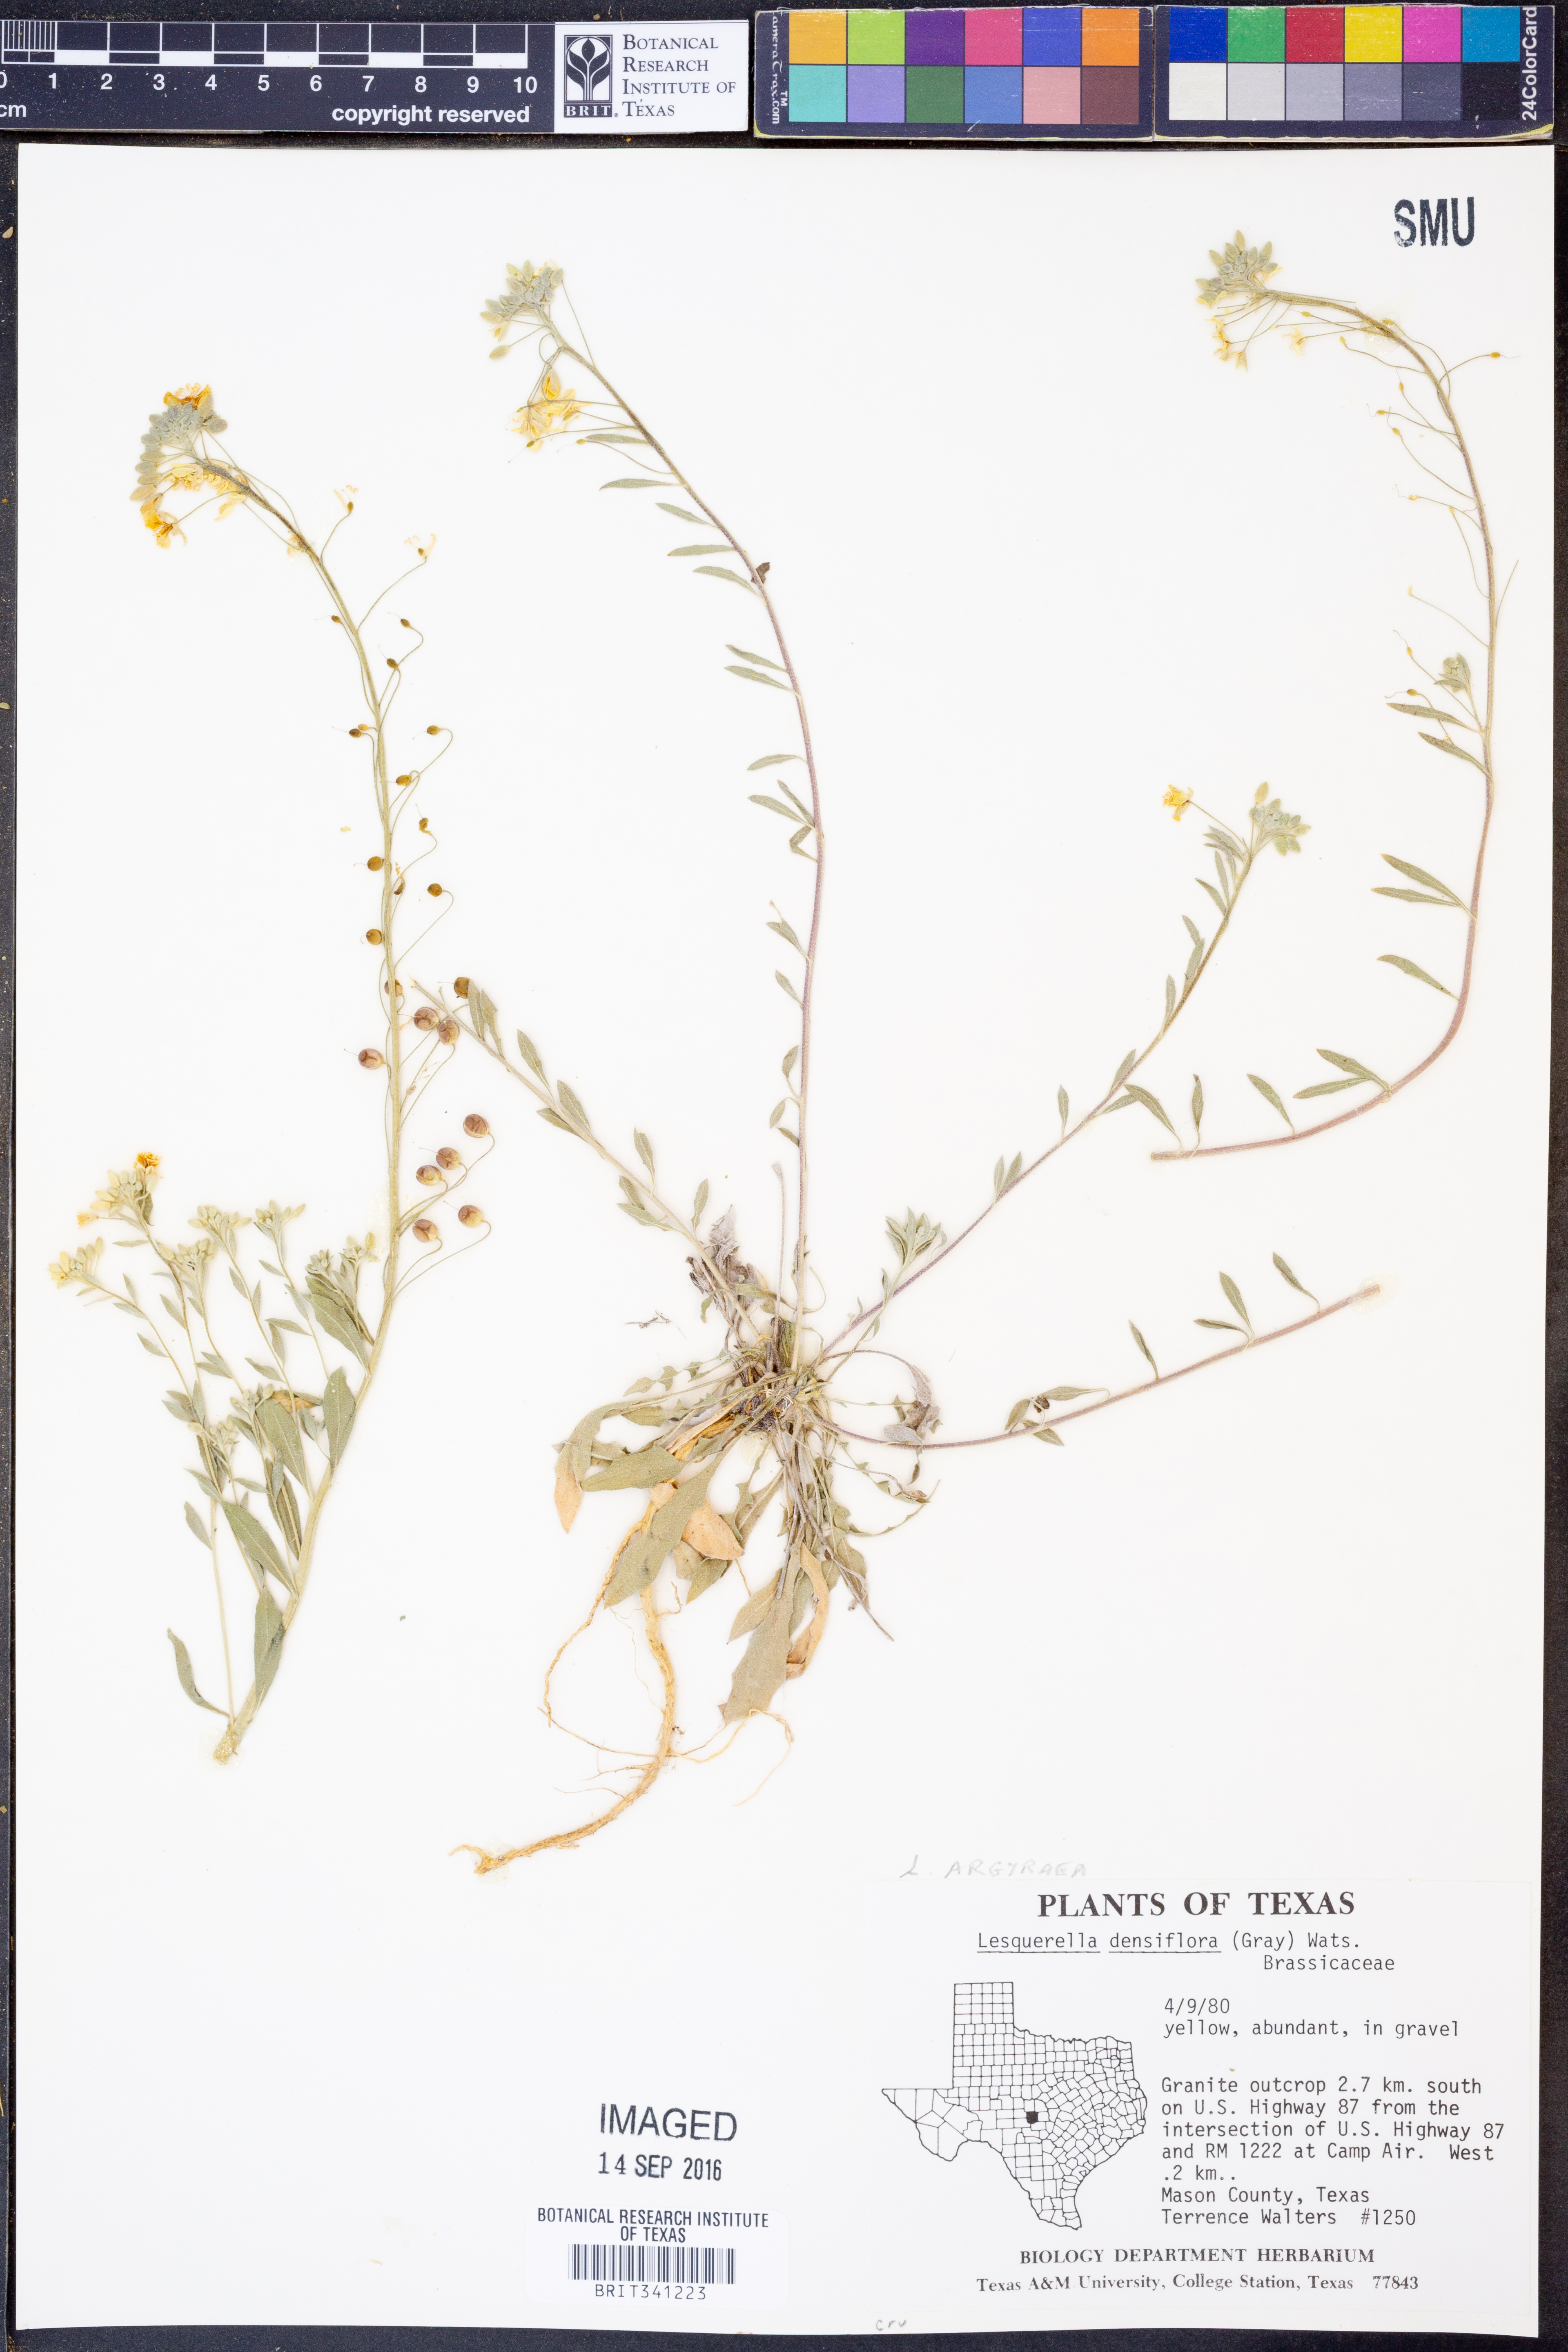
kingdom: Plantae
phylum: Tracheophyta
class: Magnoliopsida
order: Brassicales
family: Brassicaceae
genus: Physaria
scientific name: Physaria argyraea
